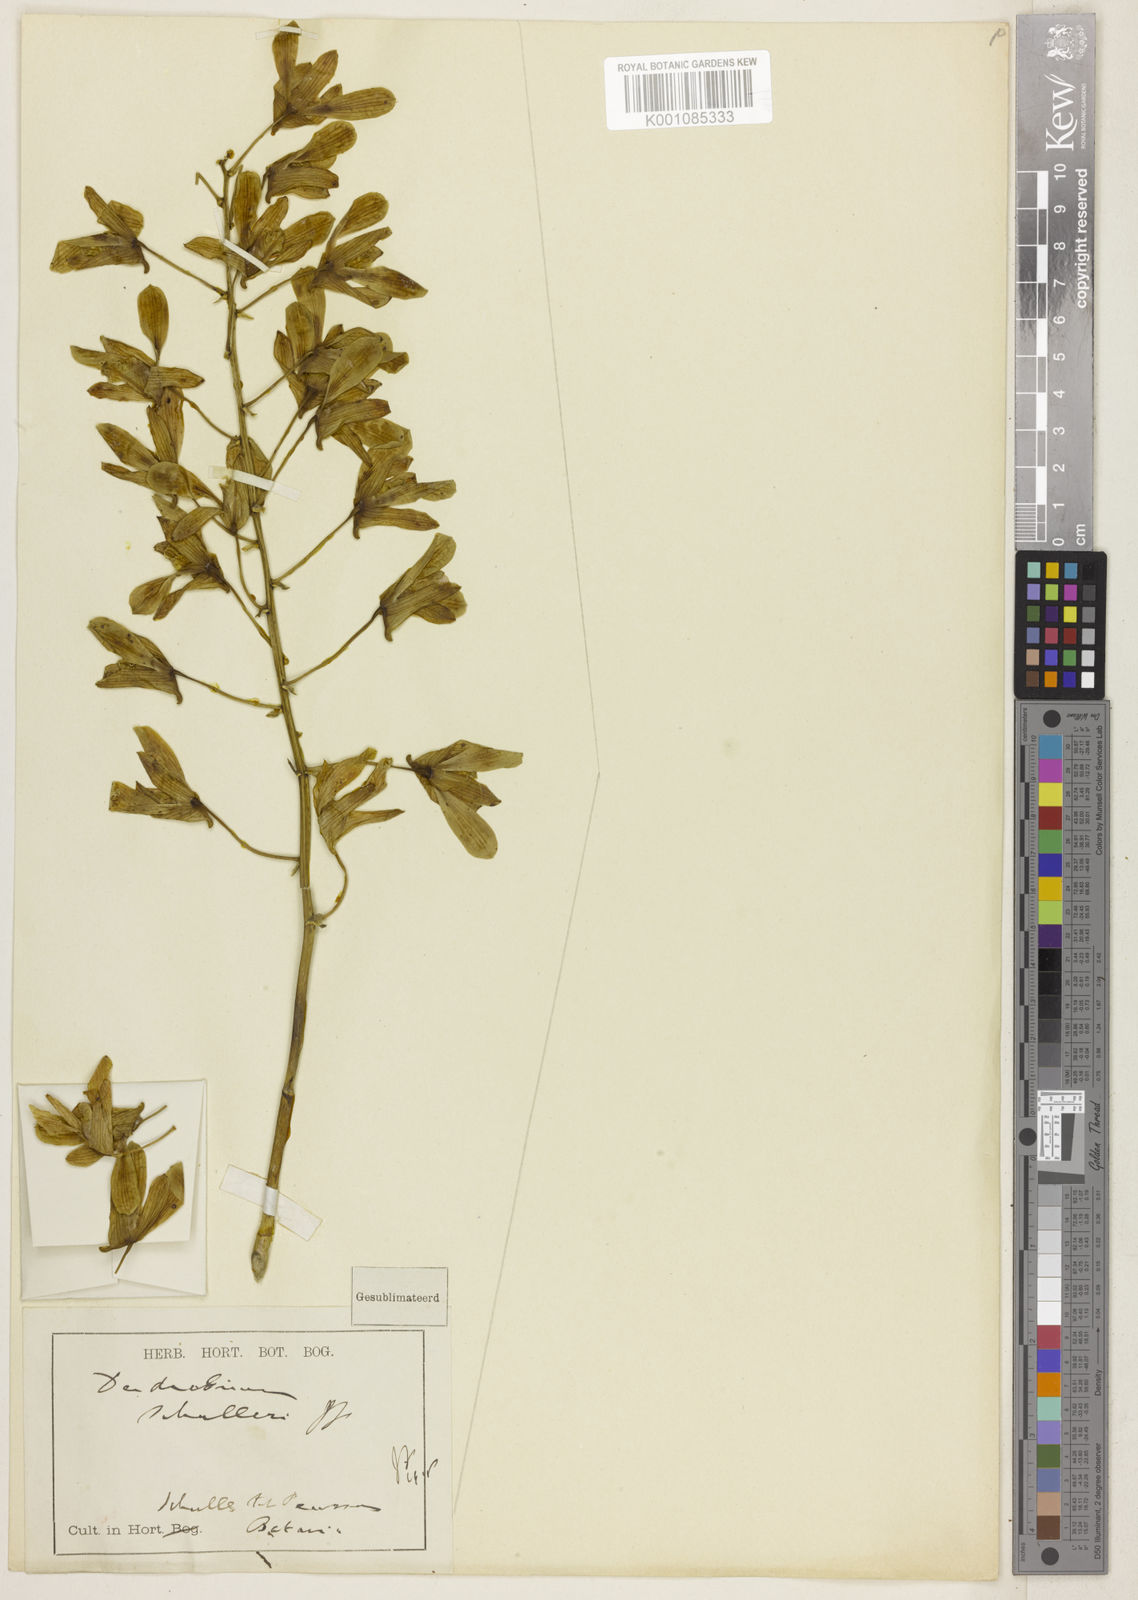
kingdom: Plantae
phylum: Tracheophyta
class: Liliopsida
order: Asparagales
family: Orchidaceae
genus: Dendrobium
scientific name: Dendrobium schulleri
